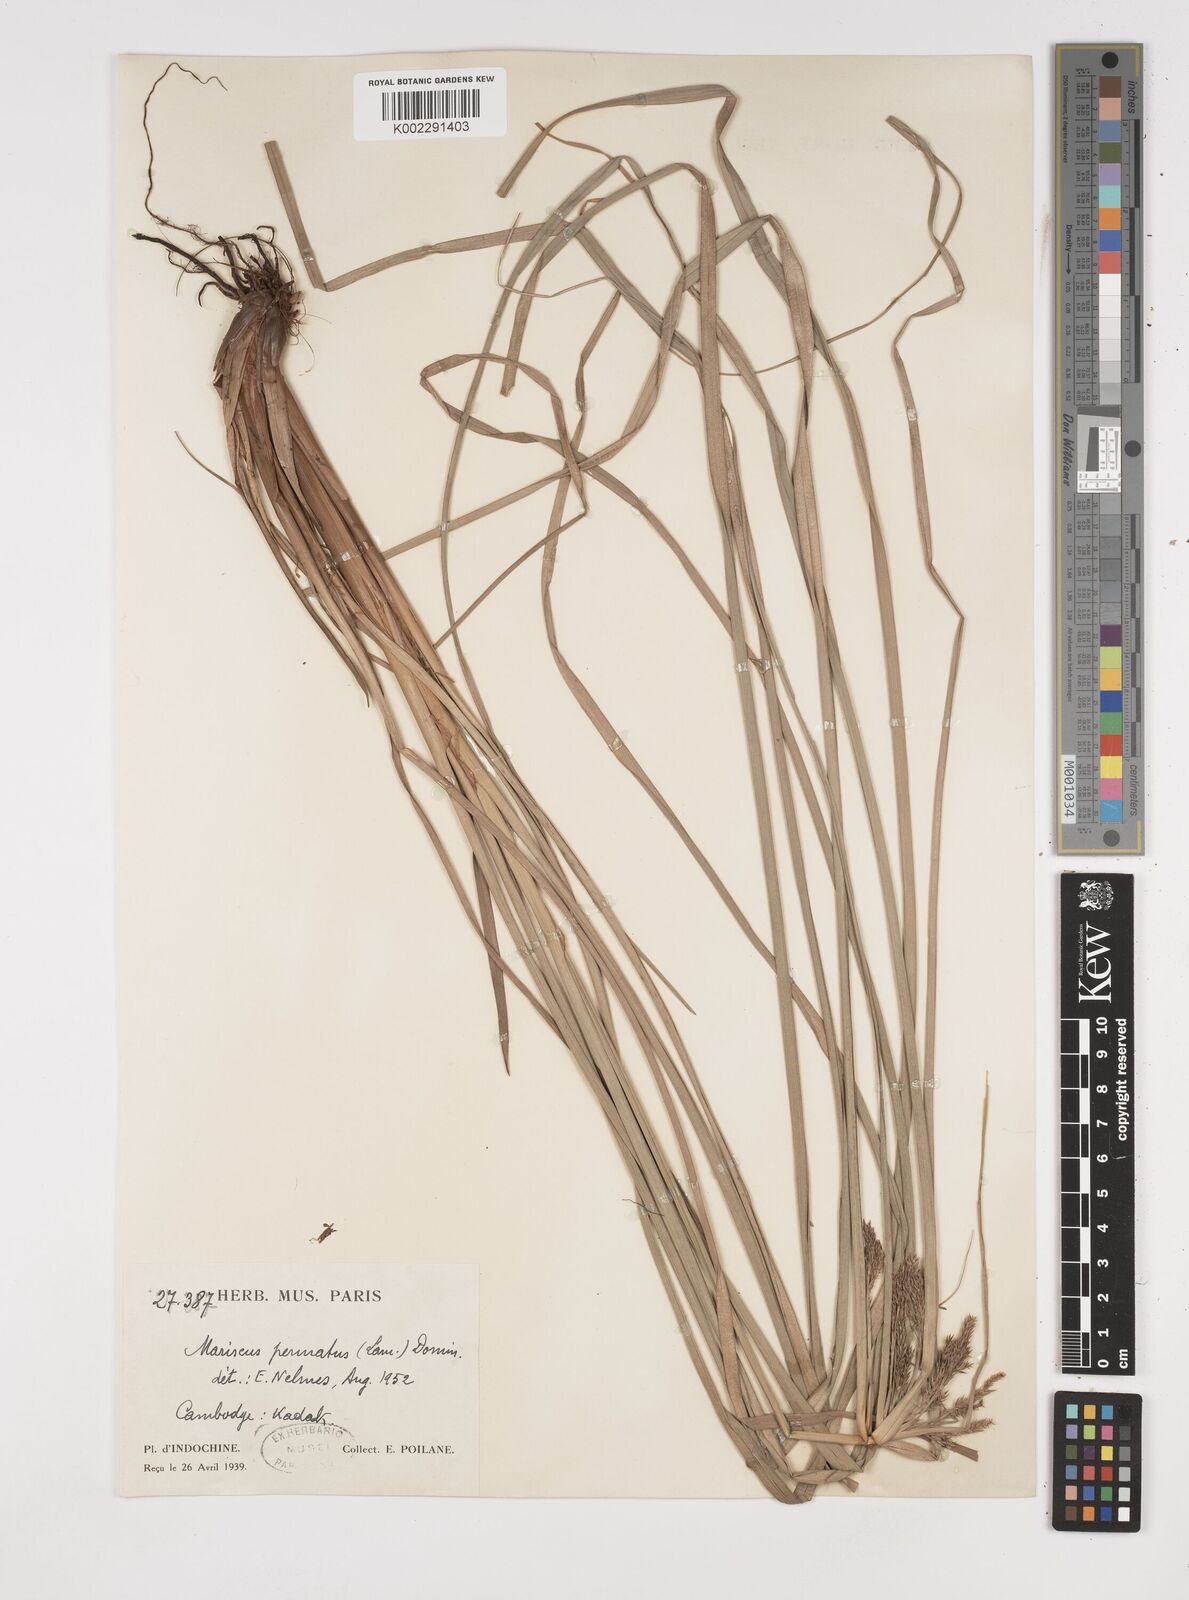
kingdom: Plantae
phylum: Tracheophyta
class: Liliopsida
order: Poales
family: Cyperaceae
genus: Cyperus
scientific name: Cyperus javanicus
